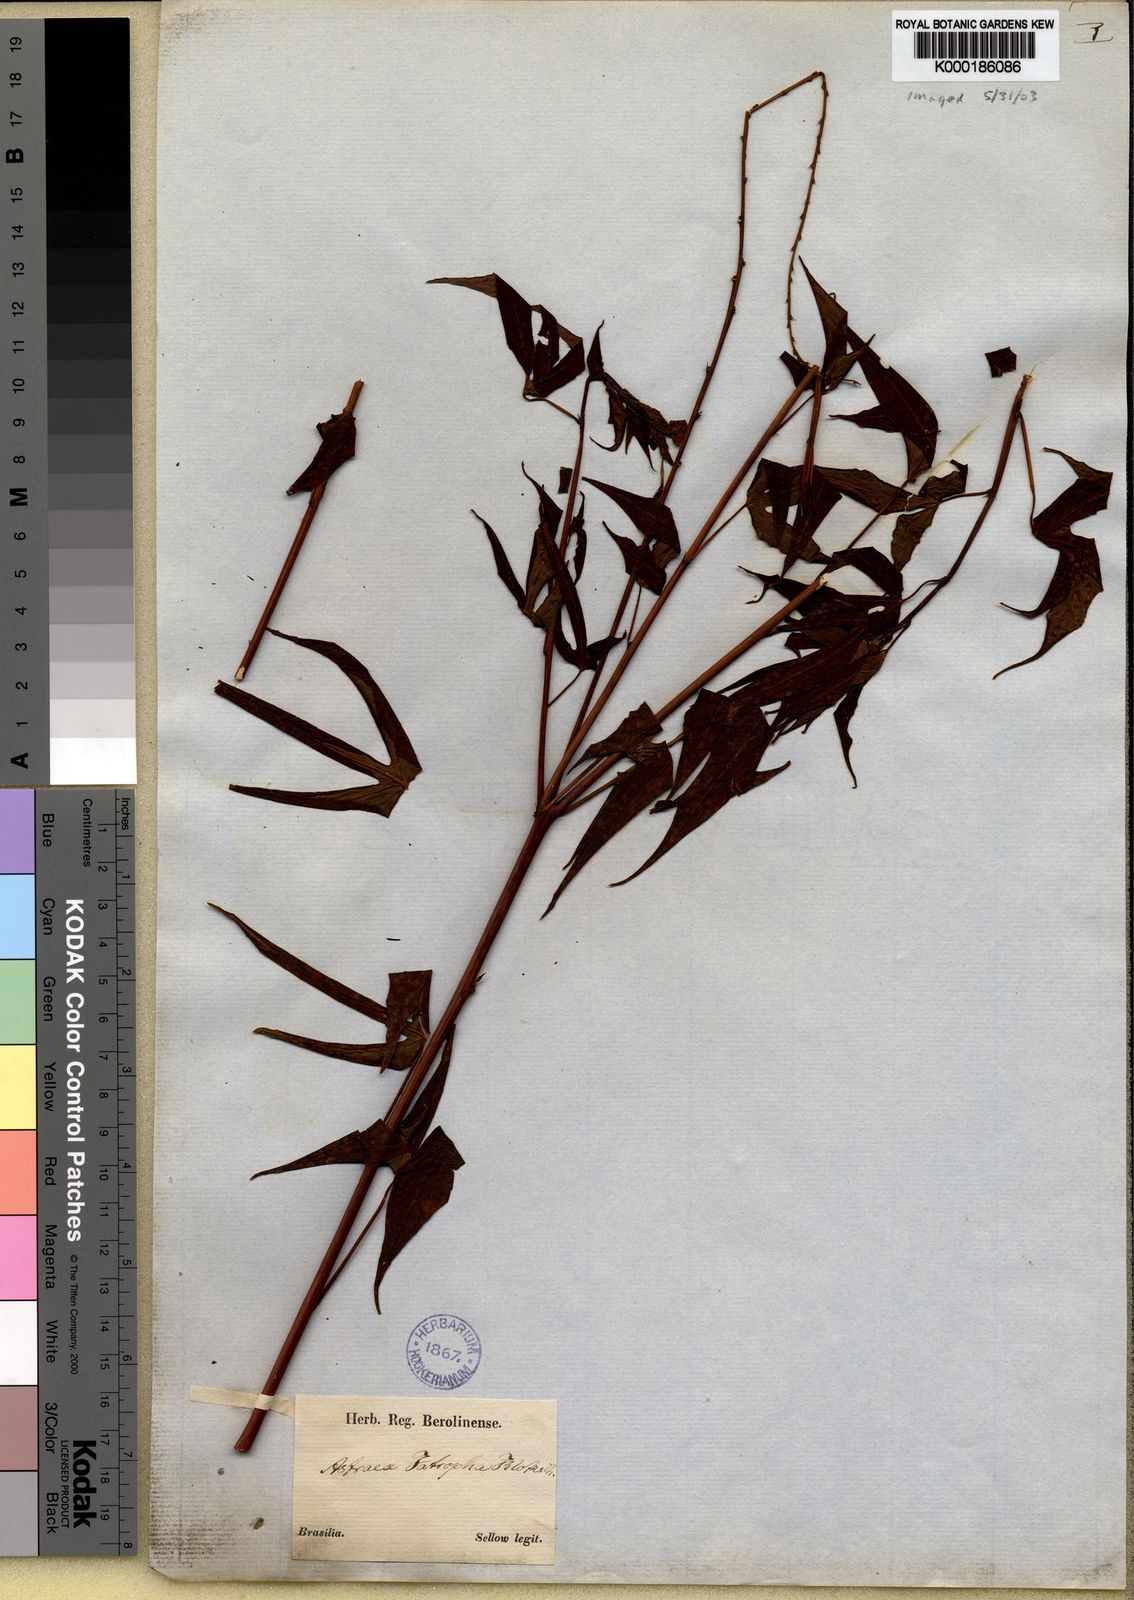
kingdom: Plantae
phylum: Tracheophyta
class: Magnoliopsida
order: Malpighiales
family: Euphorbiaceae
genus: Croton
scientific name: Croton
